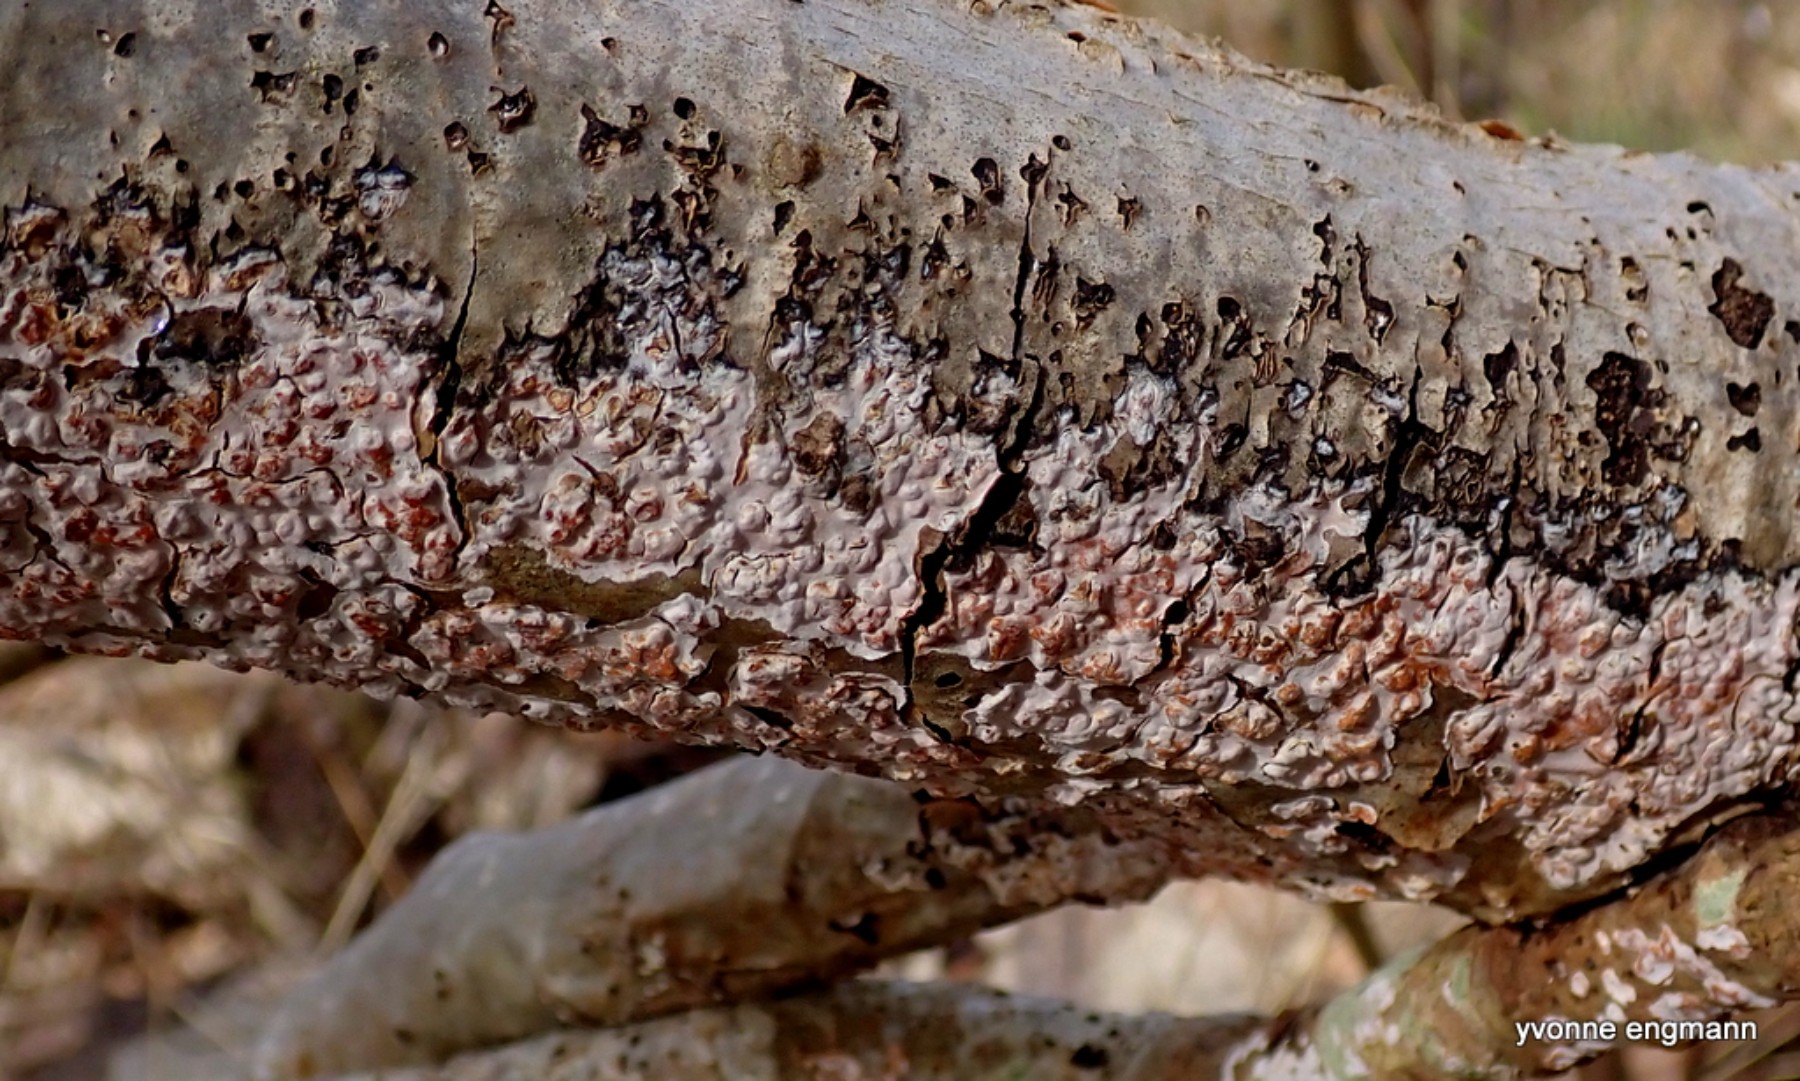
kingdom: Fungi
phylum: Basidiomycota
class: Agaricomycetes
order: Russulales
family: Peniophoraceae
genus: Peniophora
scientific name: Peniophora polygonia
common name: polygon-voksskind
